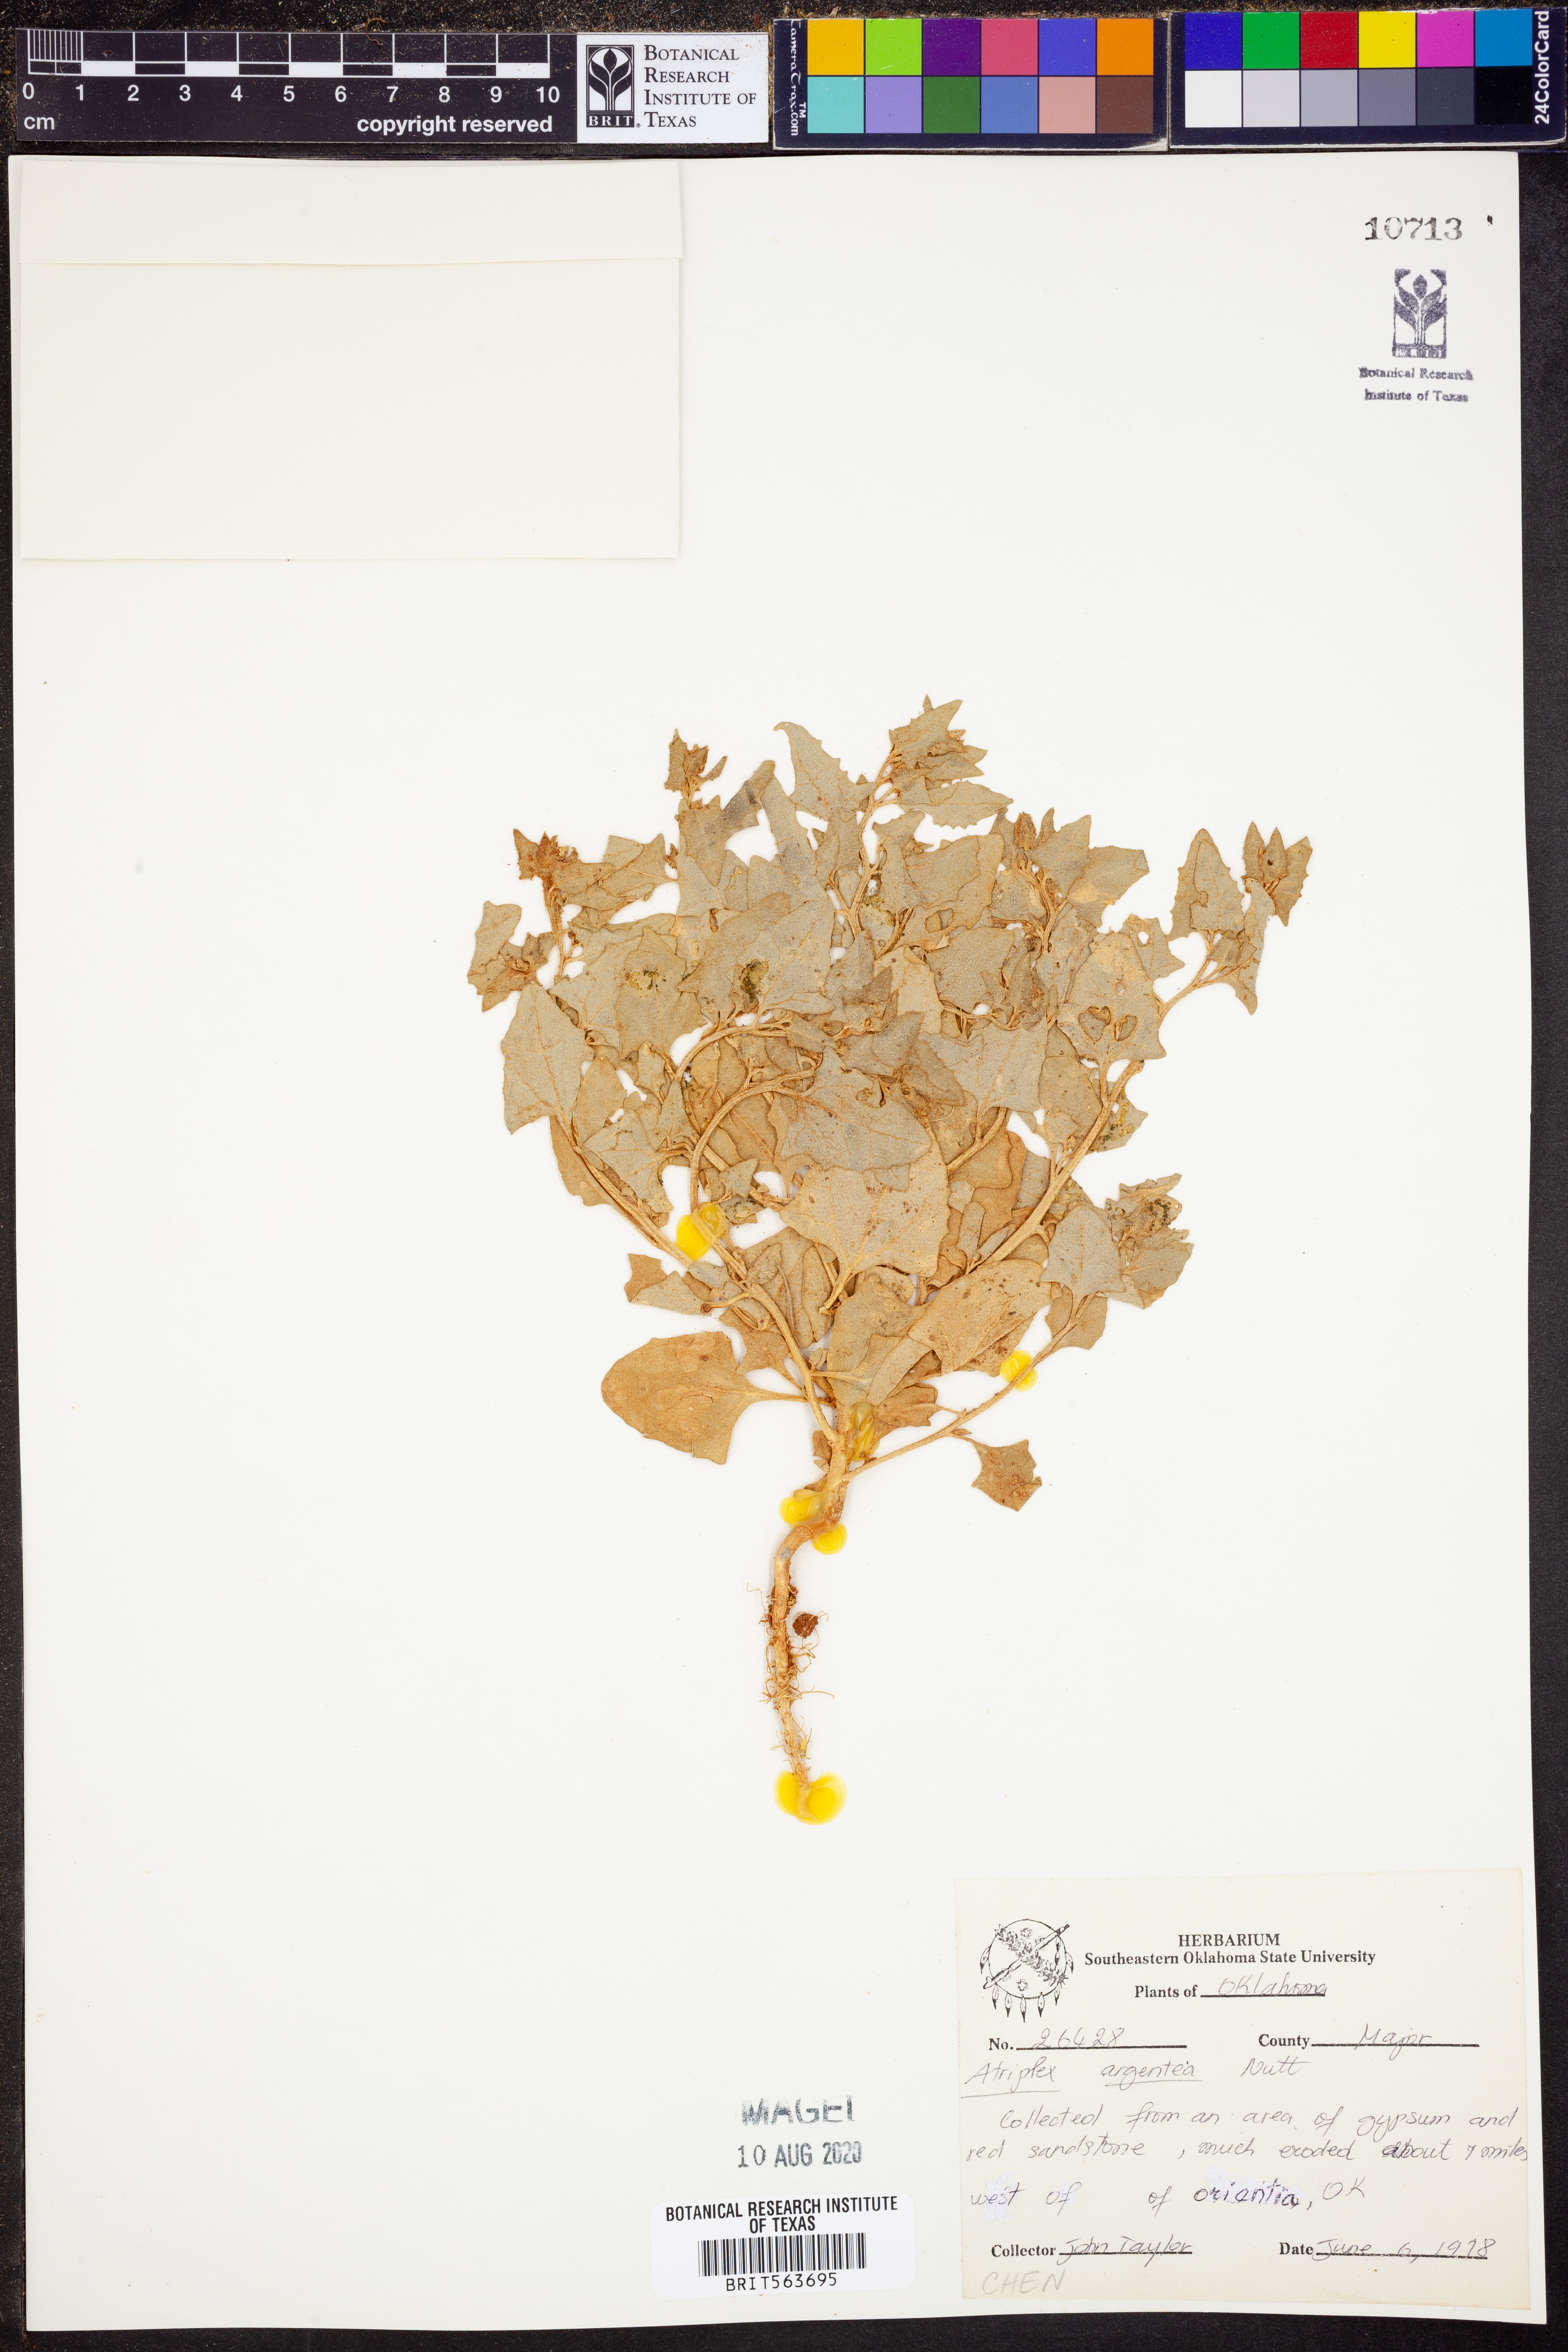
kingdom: Plantae
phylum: Tracheophyta
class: Magnoliopsida
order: Caryophyllales
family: Amaranthaceae
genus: Atriplex
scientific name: Atriplex argentea
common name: Silverscale
